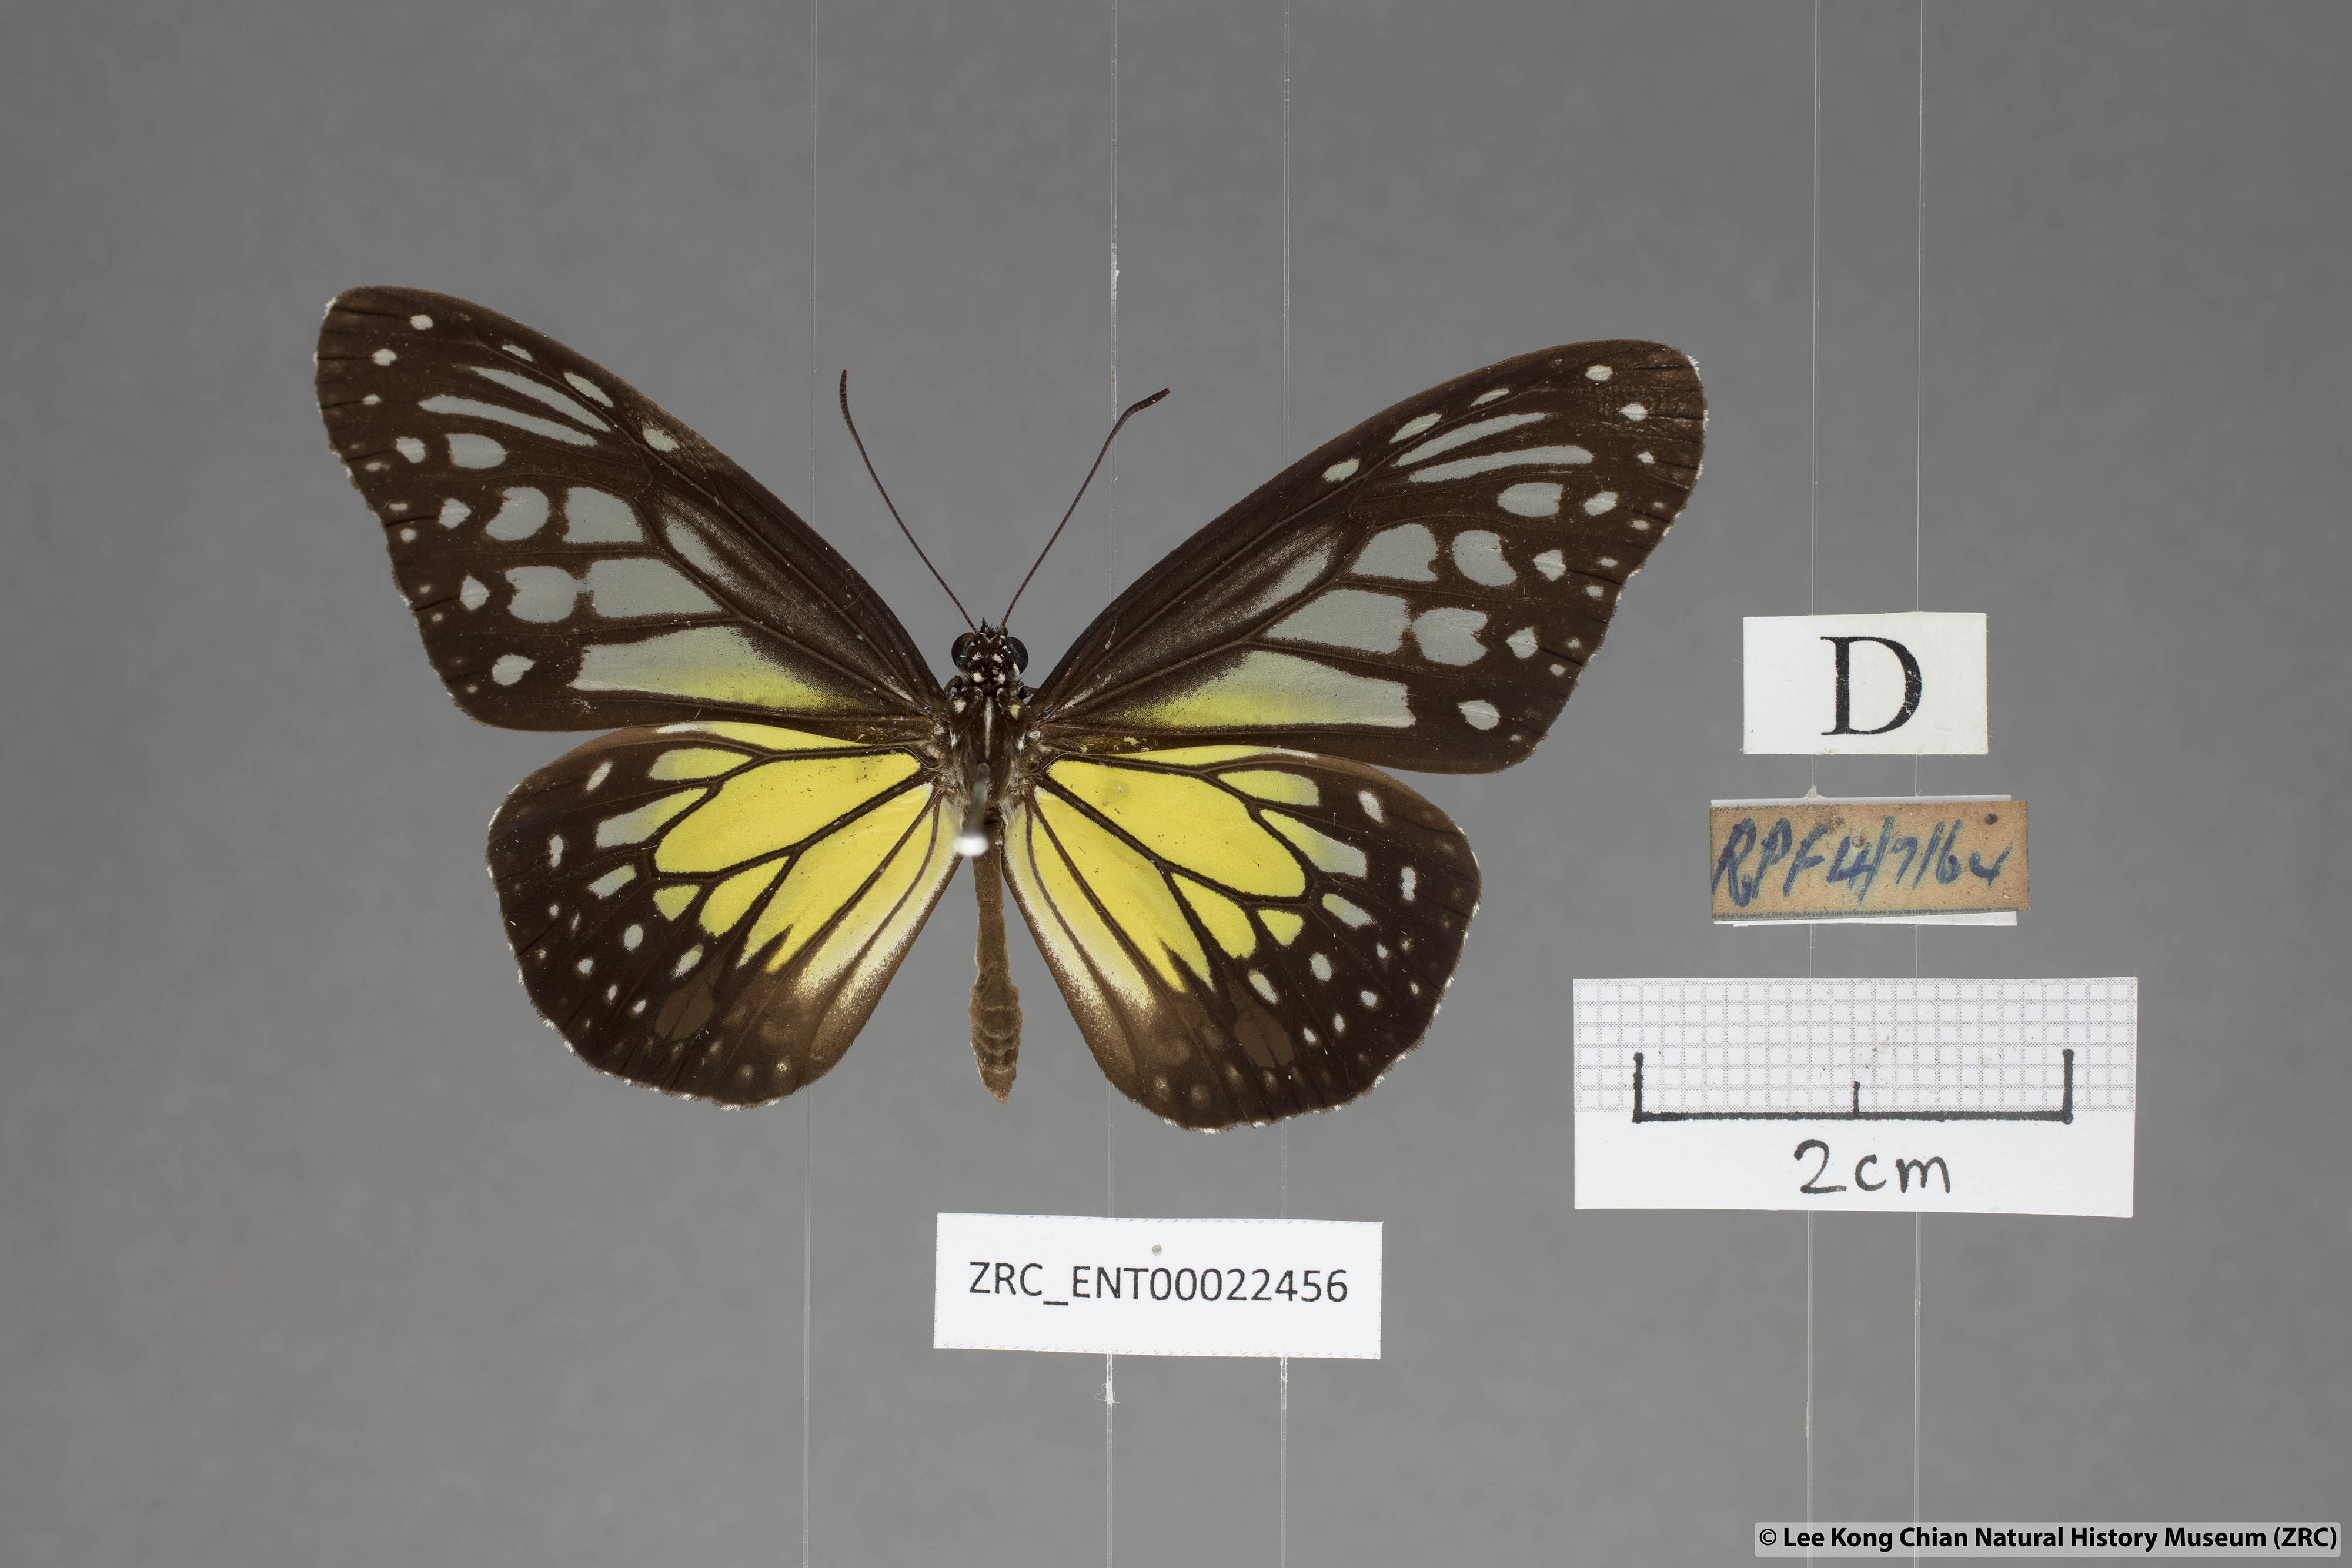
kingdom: Animalia
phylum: Arthropoda
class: Insecta
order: Lepidoptera
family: Nymphalidae
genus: Parantica
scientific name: Parantica aspasia
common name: Yellow glassy tiger
